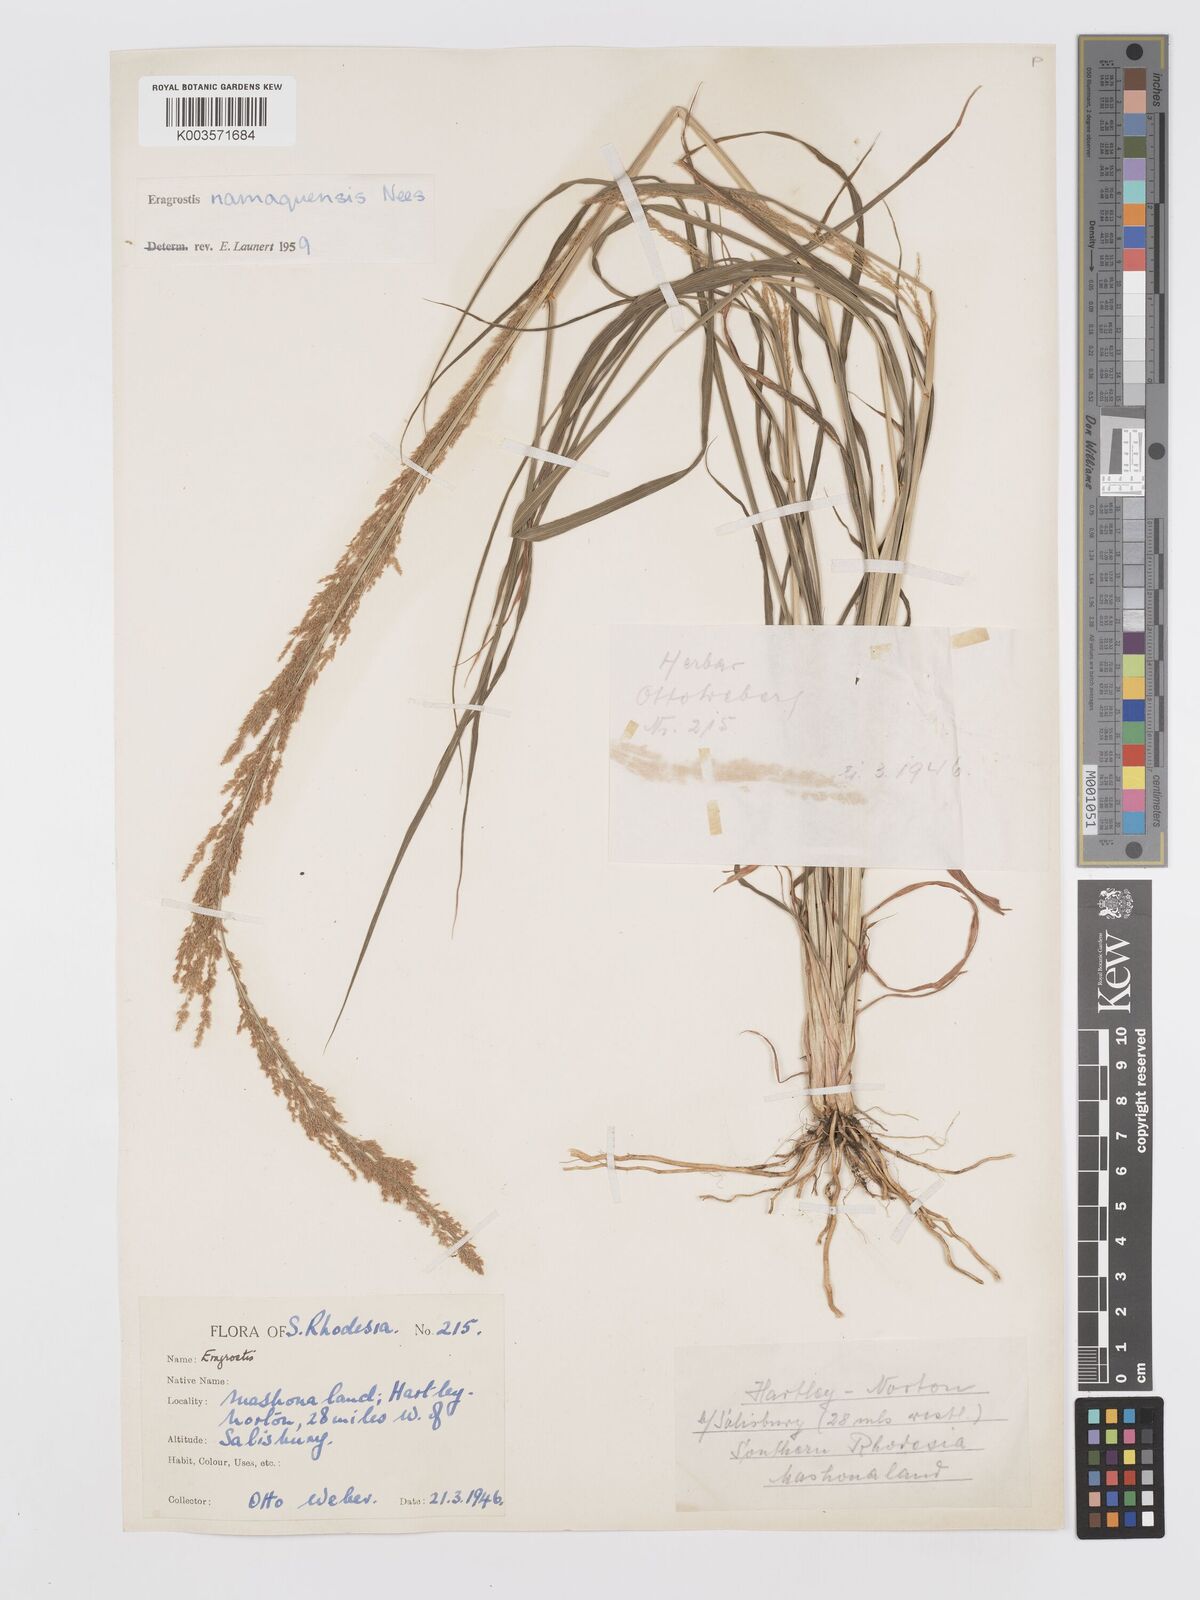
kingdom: Plantae
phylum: Tracheophyta
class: Liliopsida
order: Poales
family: Poaceae
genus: Eragrostis
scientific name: Eragrostis japonica
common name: Pond lovegrass
